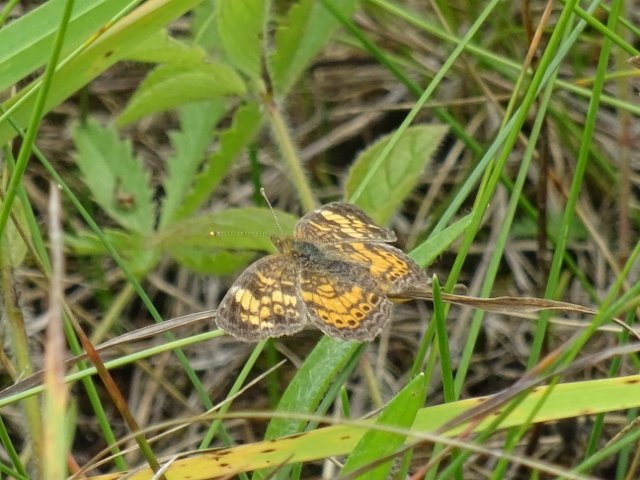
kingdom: Animalia
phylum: Arthropoda
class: Insecta
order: Lepidoptera
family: Nymphalidae
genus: Phyciodes
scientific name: Phyciodes tharos
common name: Northern Crescent
